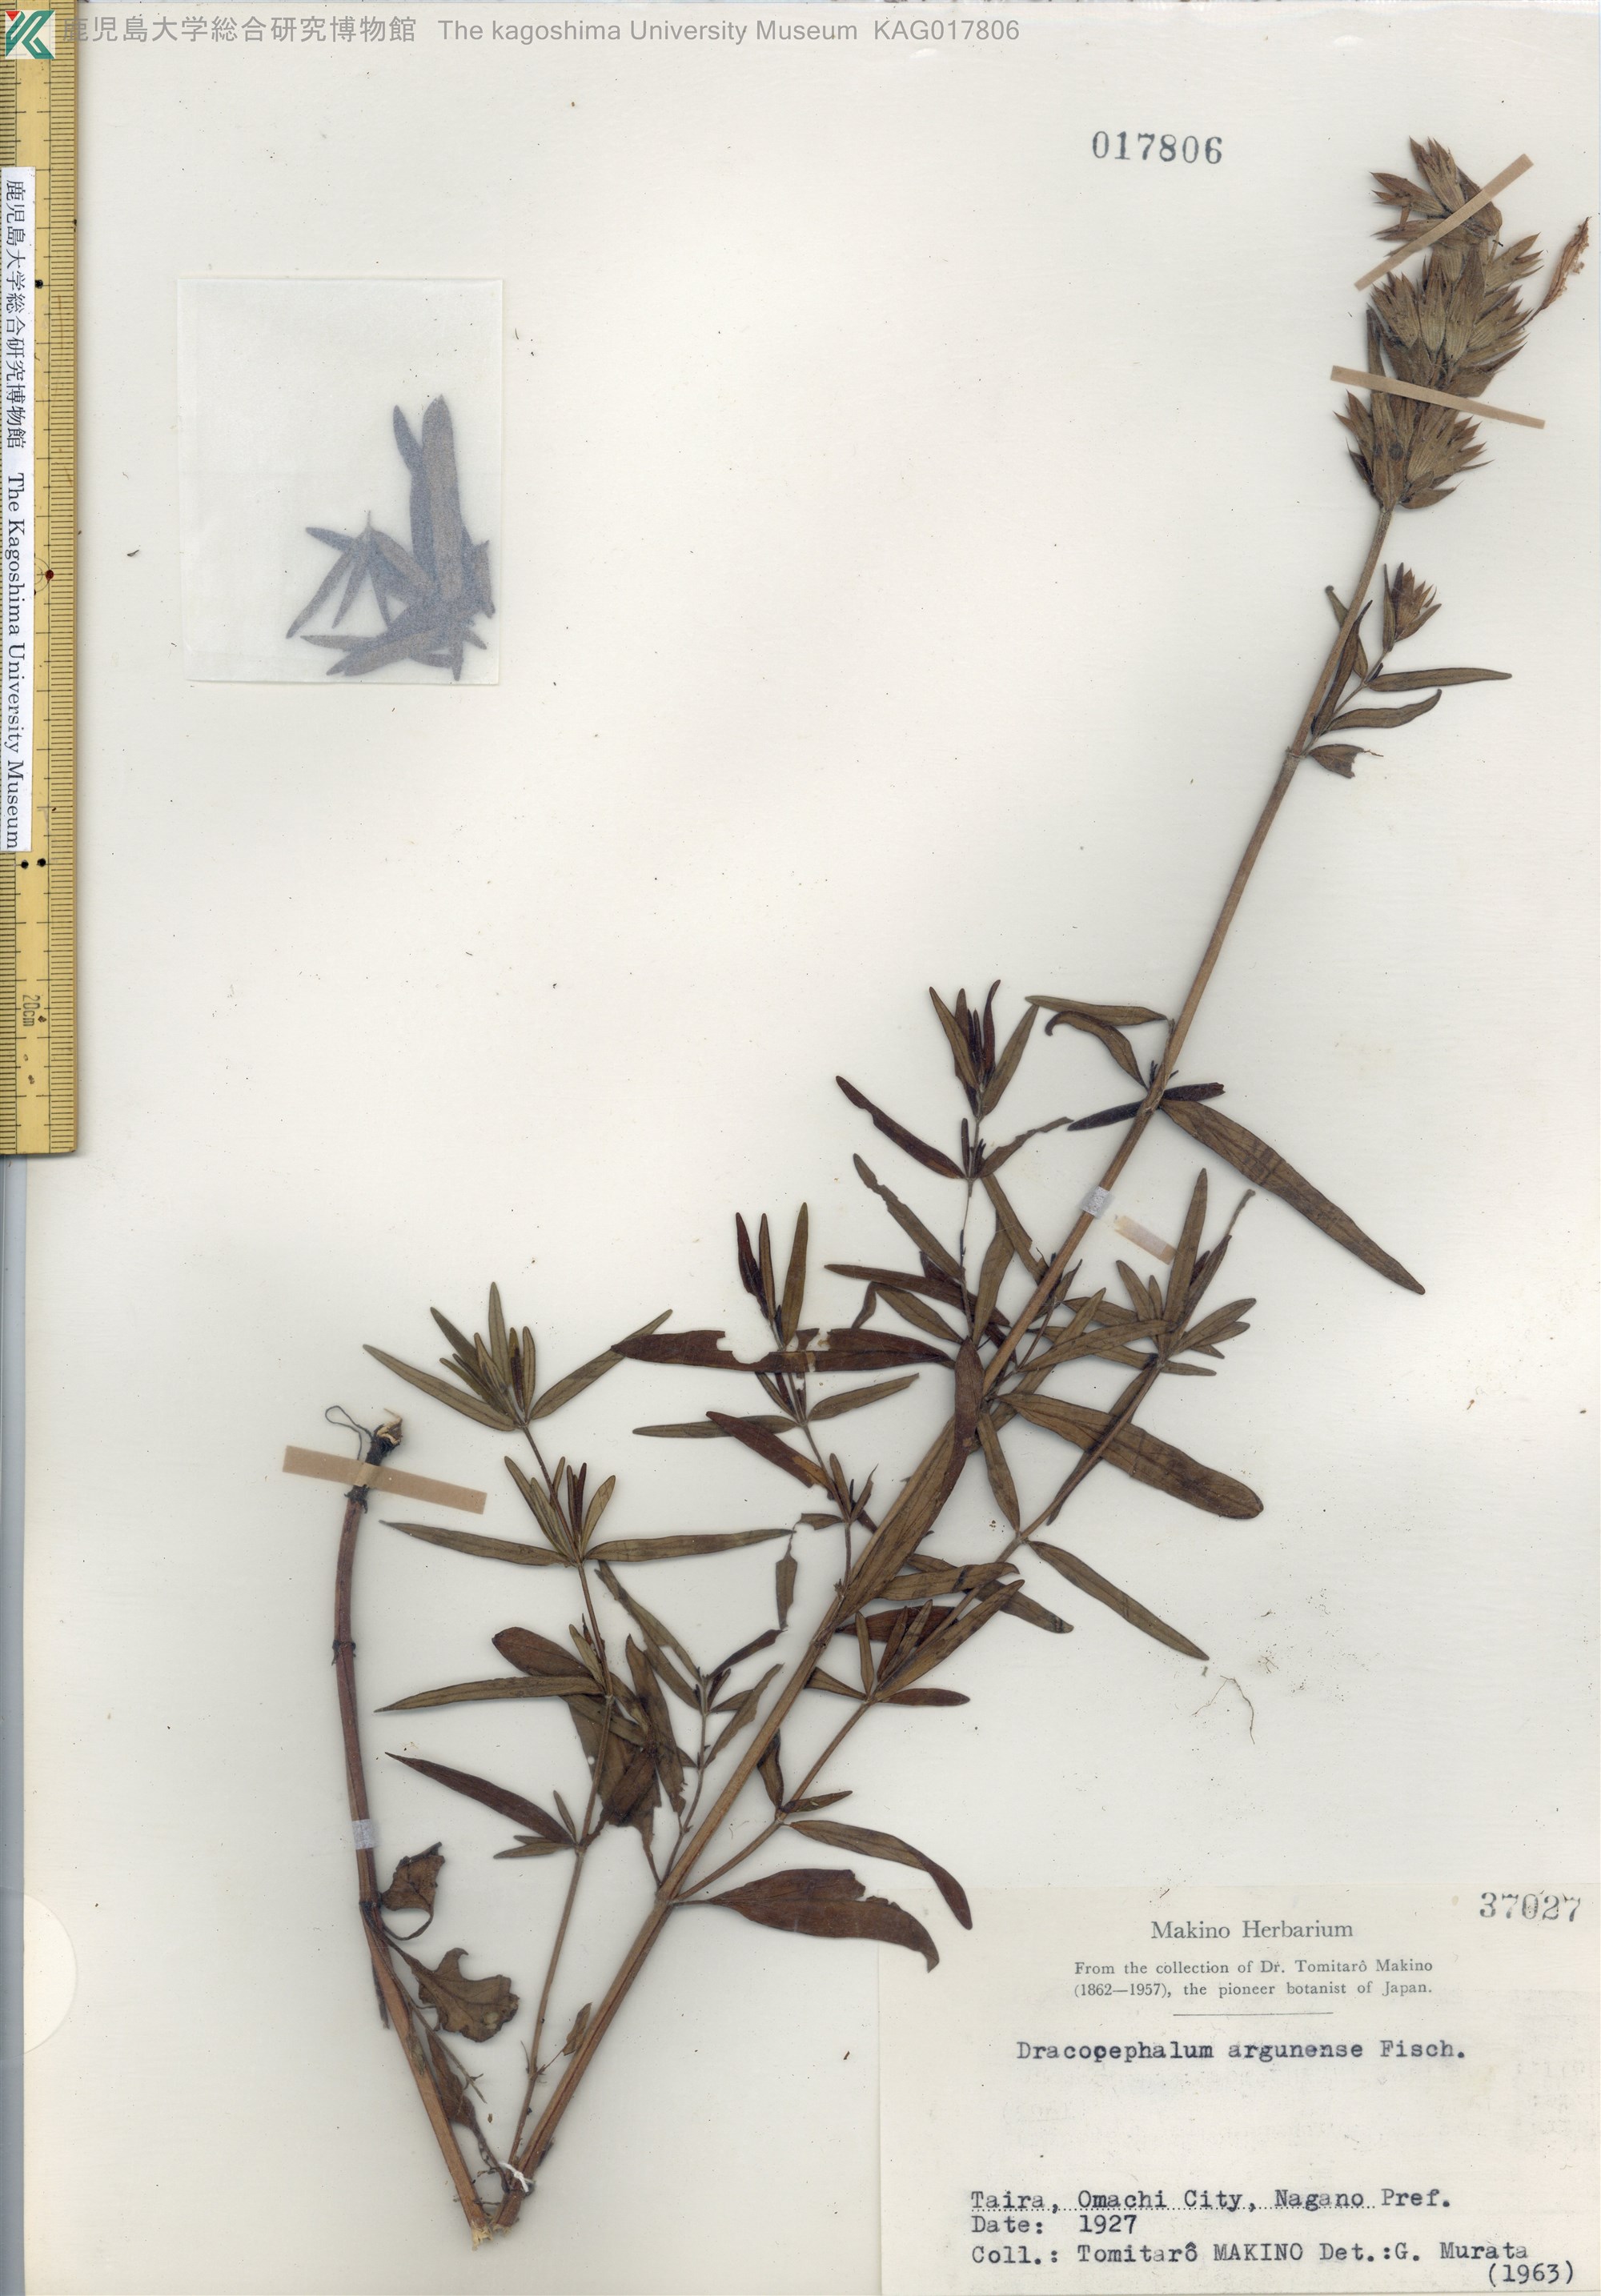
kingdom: Plantae
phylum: Tracheophyta
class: Magnoliopsida
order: Lamiales
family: Lamiaceae
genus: Dracocephalum
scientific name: Dracocephalum argunense
